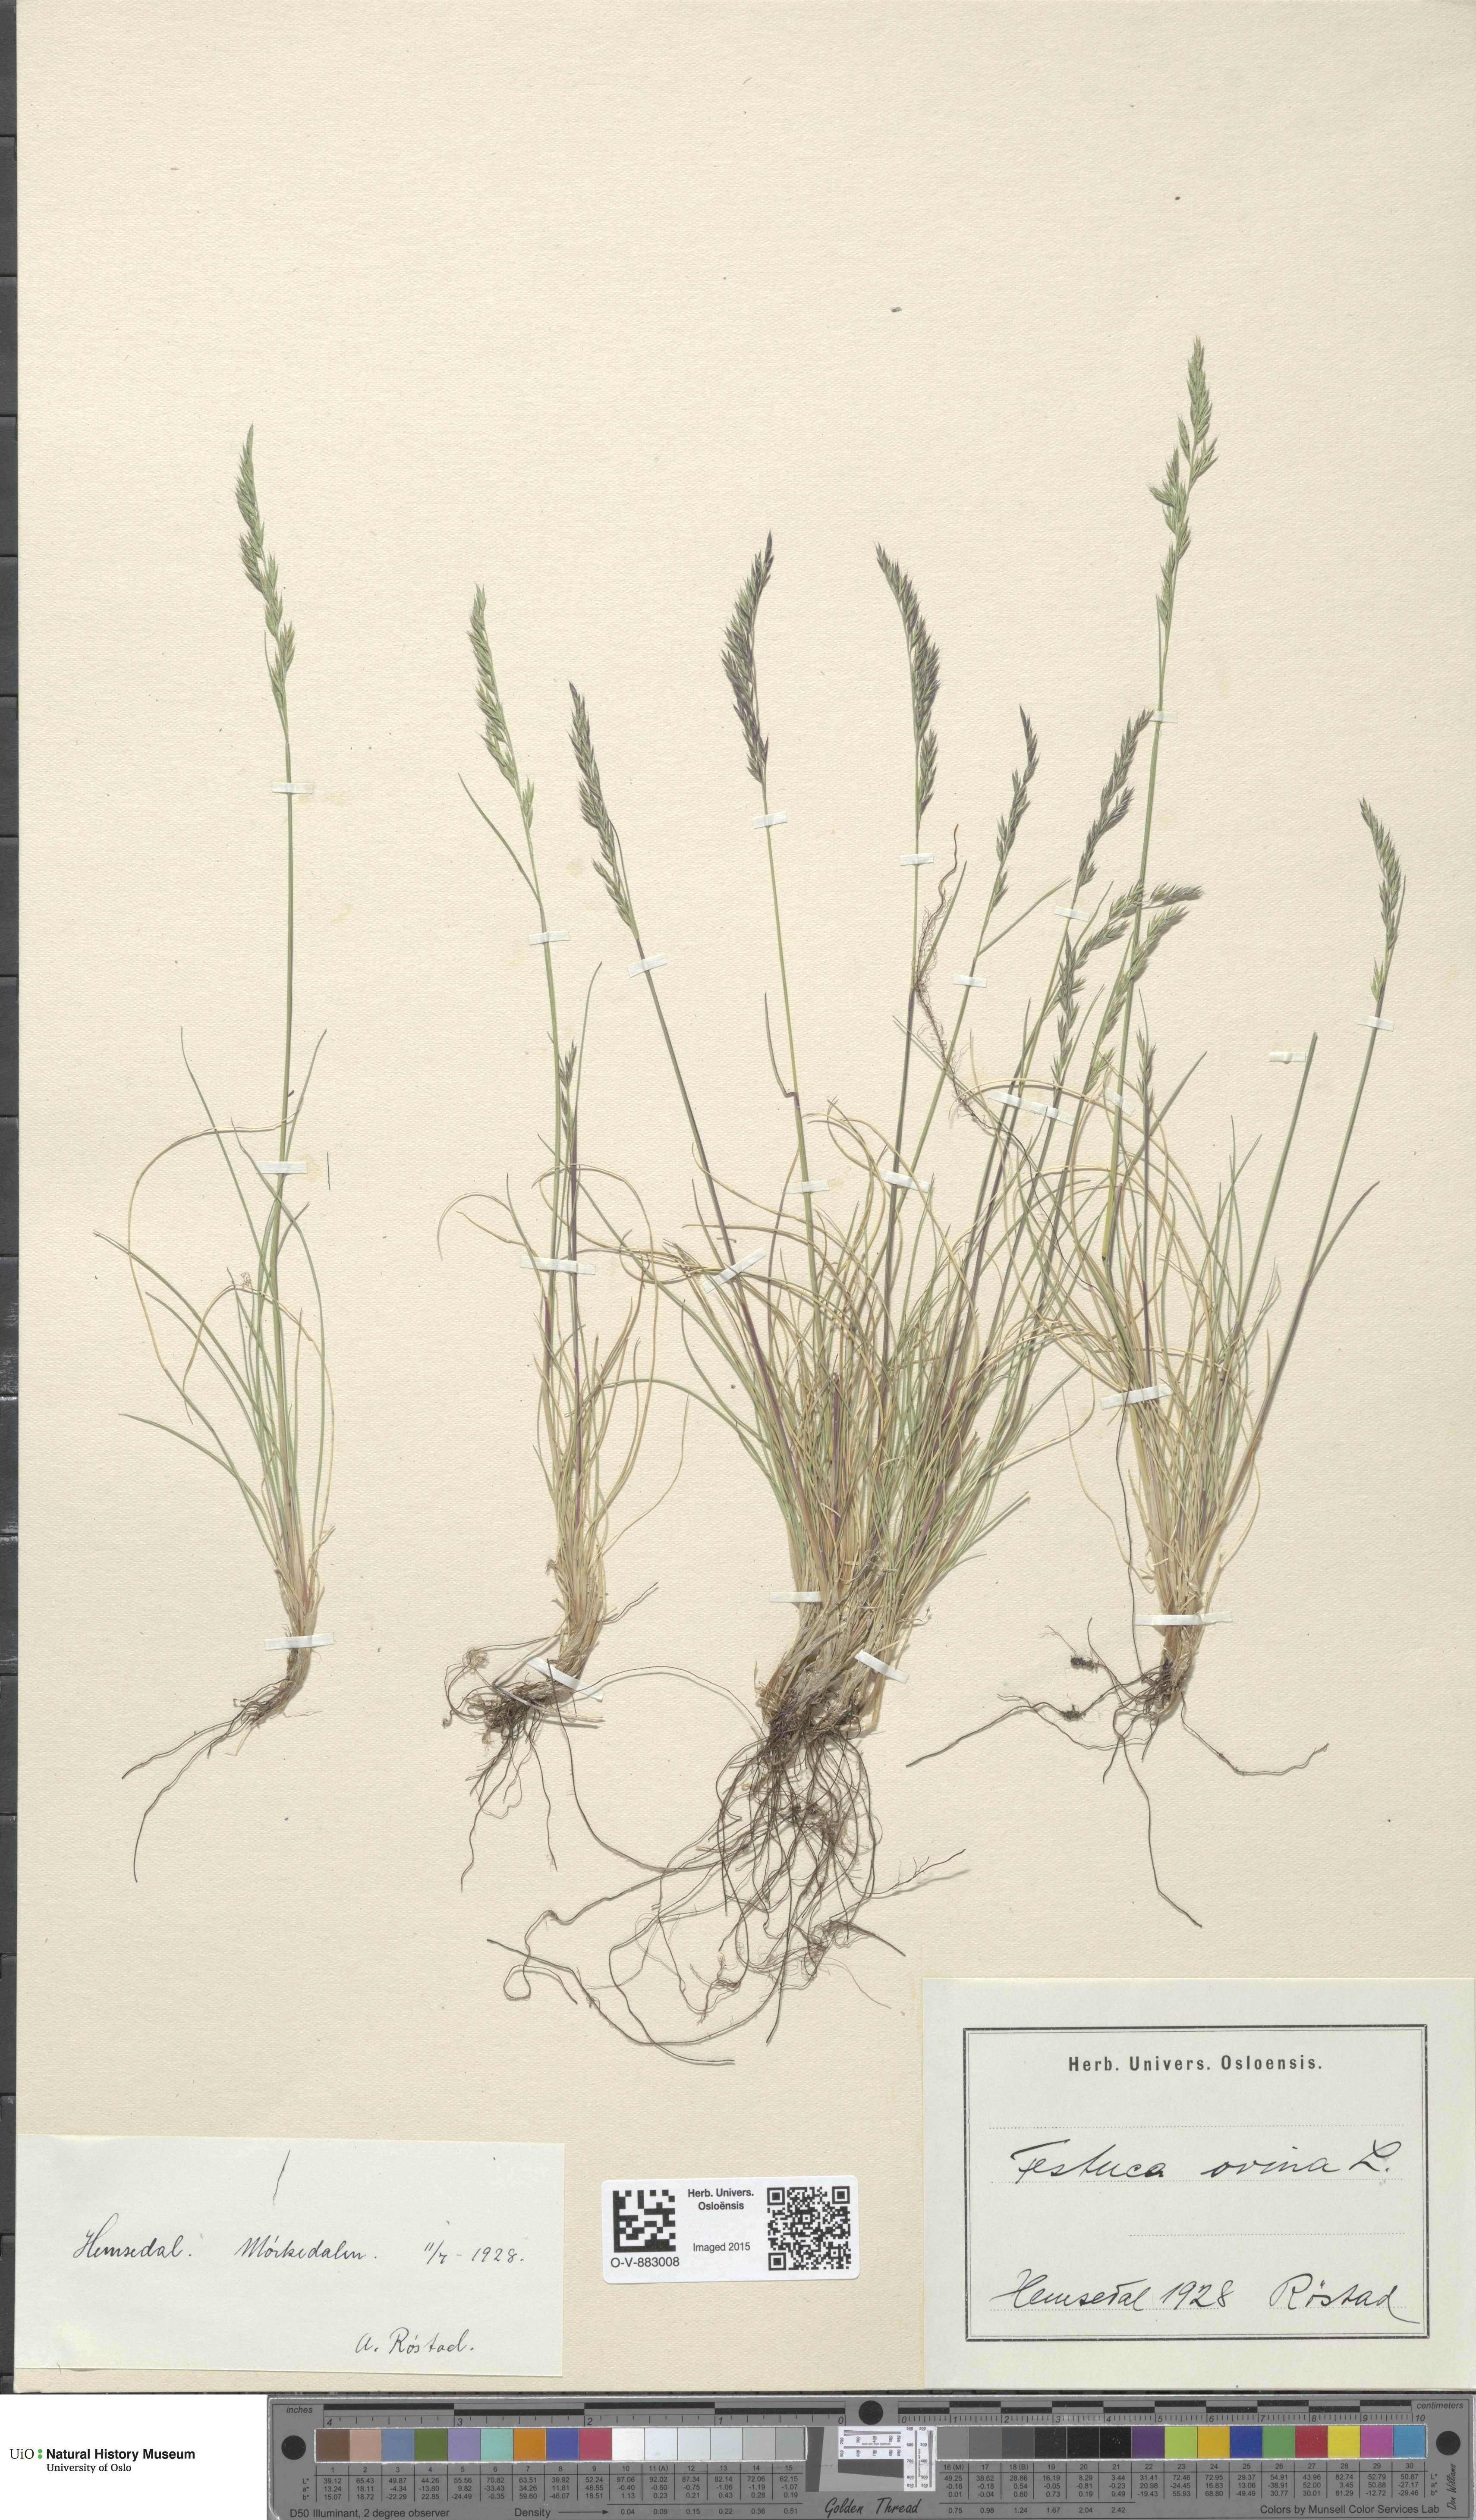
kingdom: Plantae
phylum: Tracheophyta
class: Liliopsida
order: Poales
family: Poaceae
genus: Festuca
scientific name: Festuca ovina
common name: Sheep fescue
